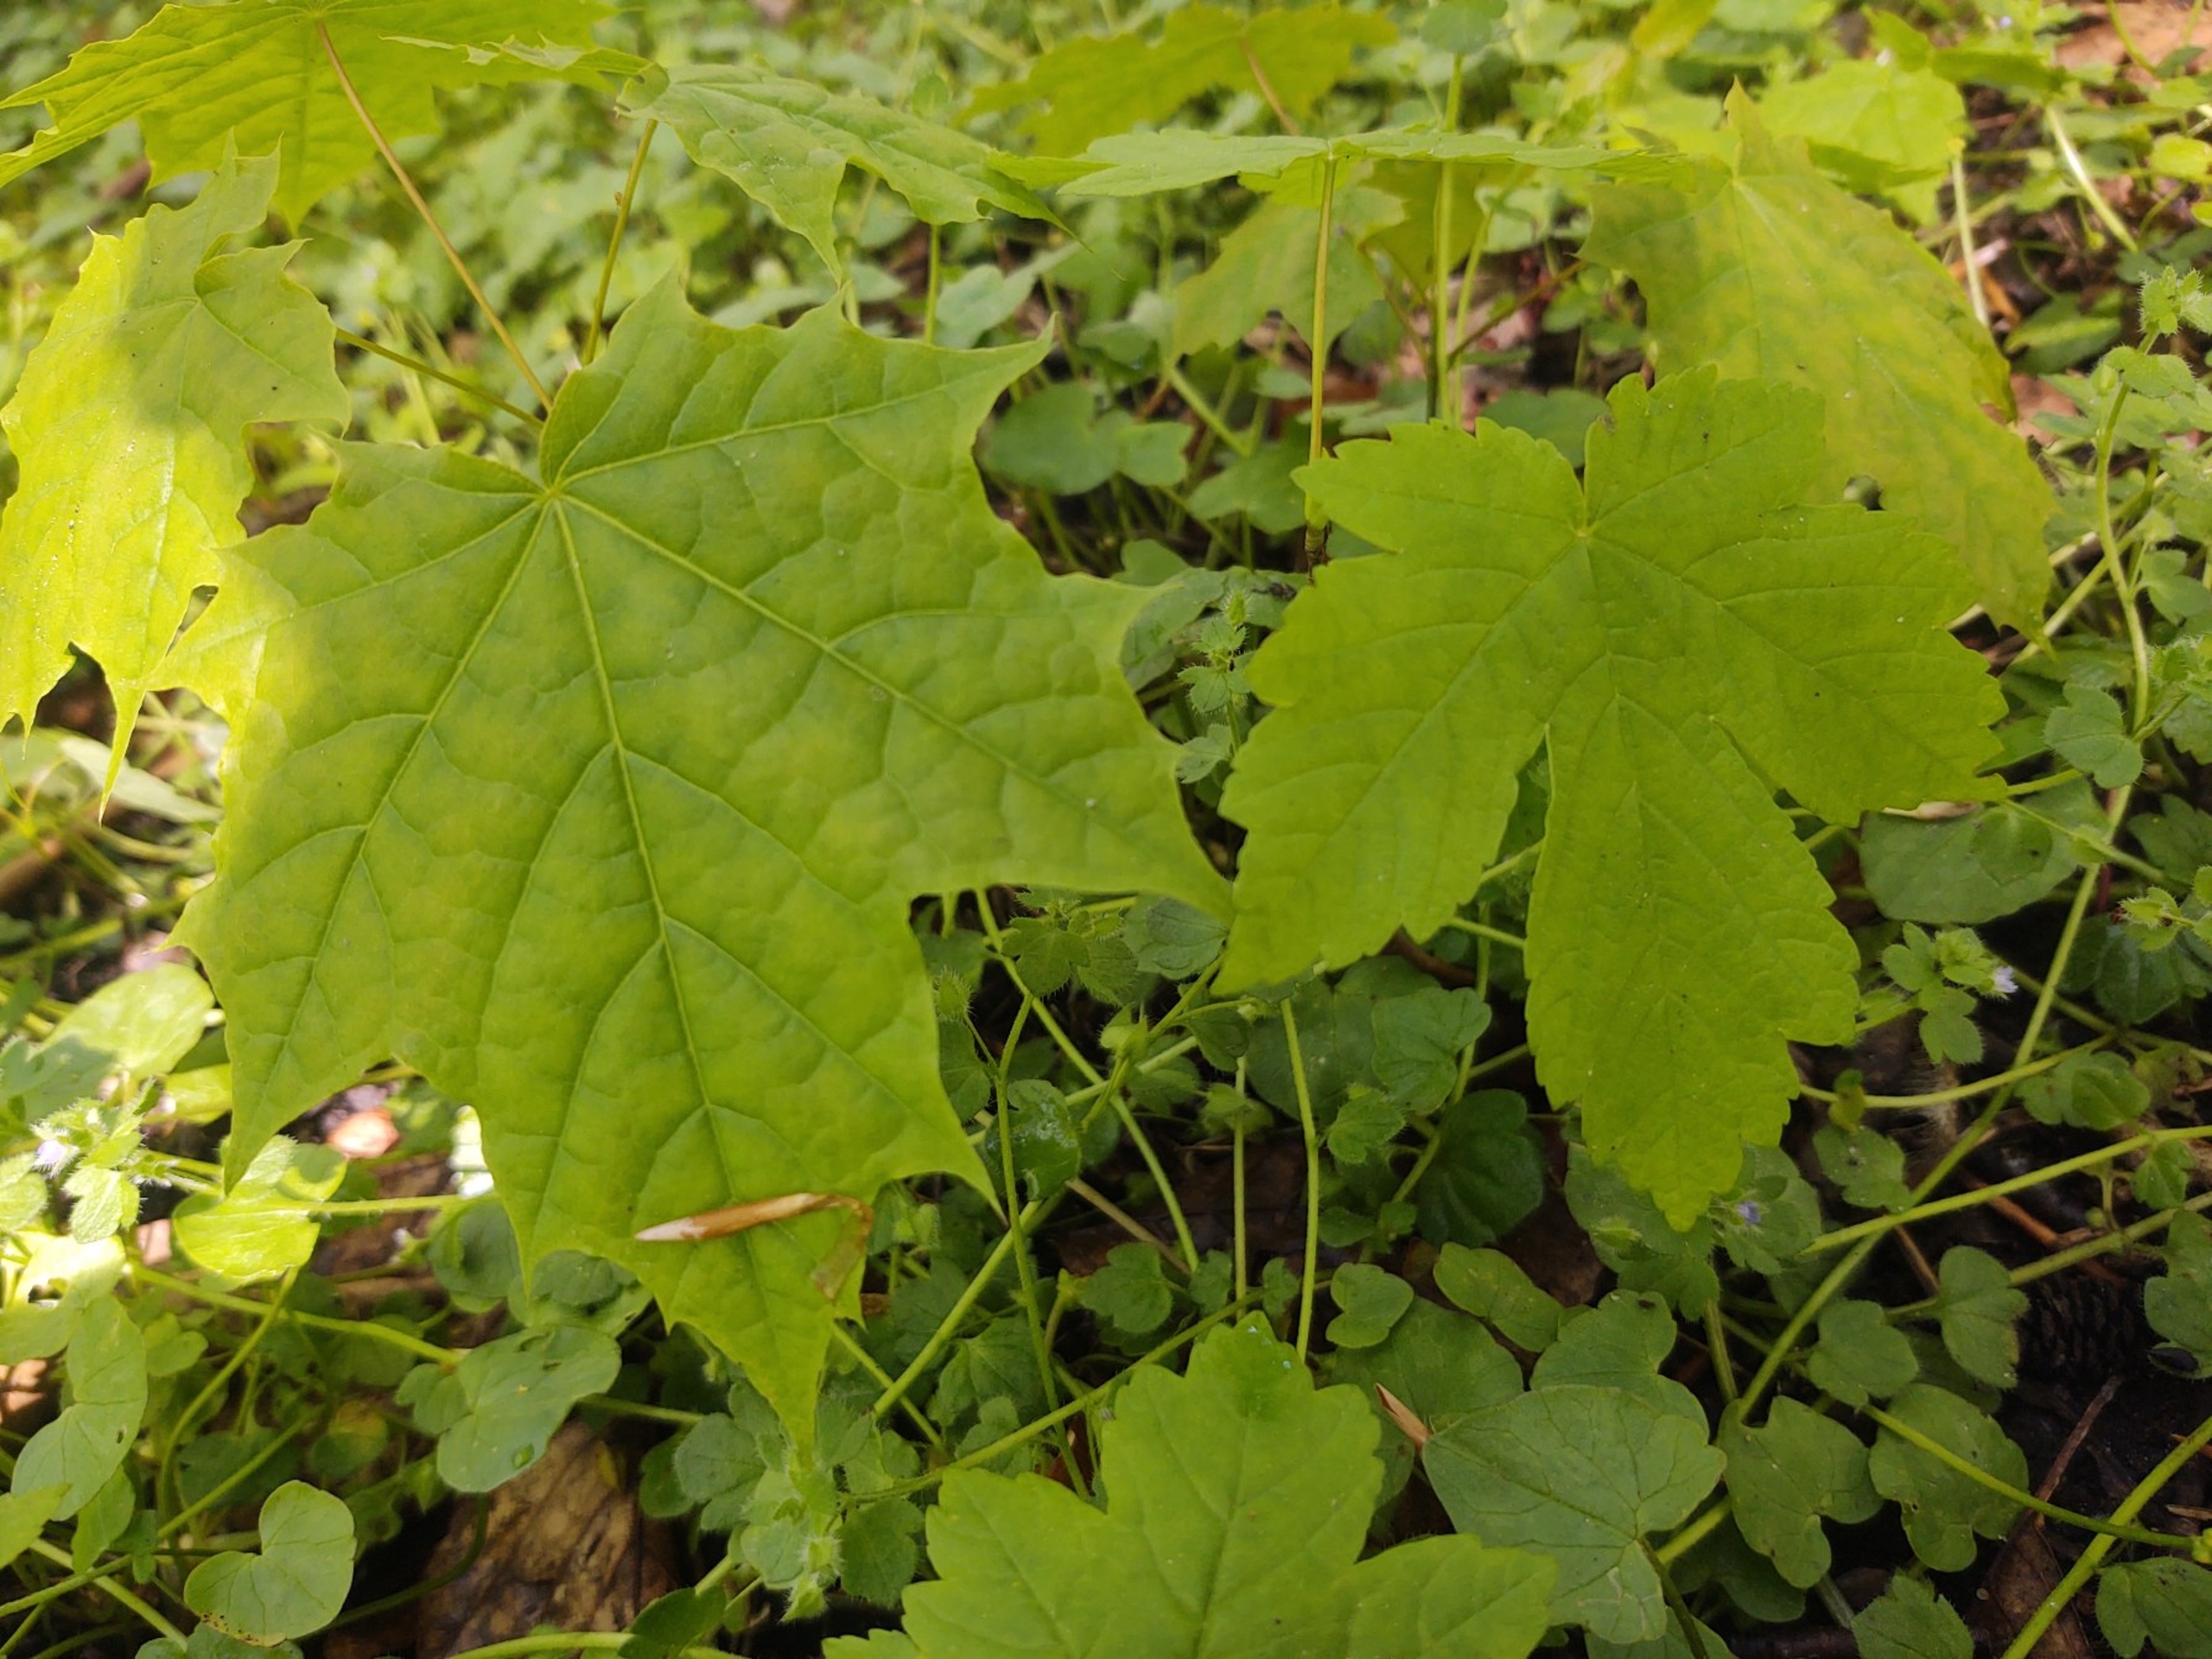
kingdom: Plantae
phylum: Tracheophyta
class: Magnoliopsida
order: Sapindales
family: Sapindaceae
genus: Acer
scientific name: Acer pseudoplatanus
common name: Ahorn
